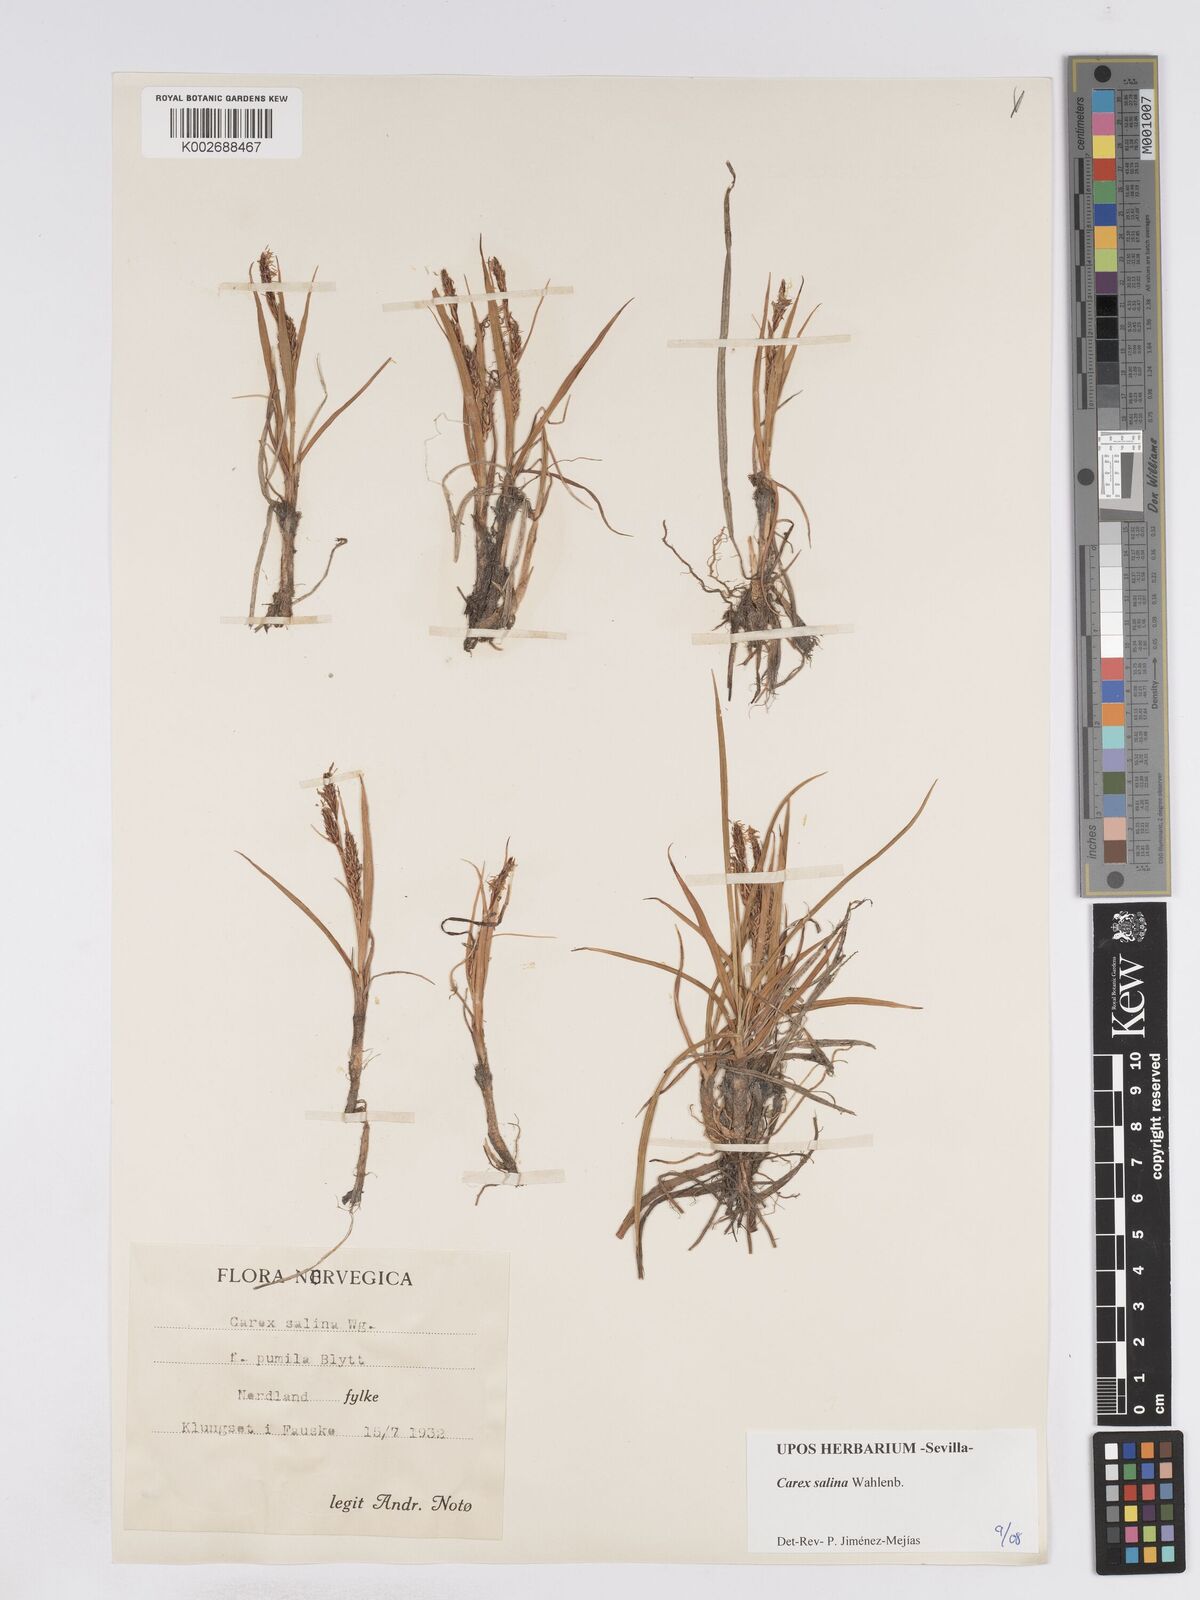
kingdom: Plantae
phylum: Tracheophyta
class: Liliopsida
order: Poales
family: Cyperaceae
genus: Carex
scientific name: Carex salina
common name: Saltmarsh sedge
